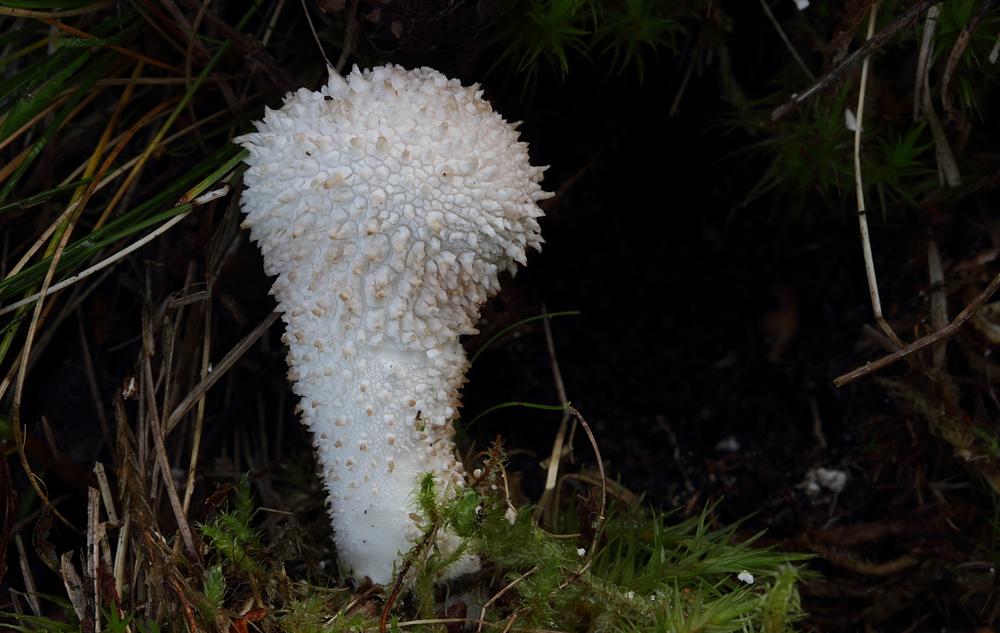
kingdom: Fungi
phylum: Basidiomycota
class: Agaricomycetes
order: Agaricales
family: Lycoperdaceae
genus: Lycoperdon
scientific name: Lycoperdon perlatum
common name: krystal-støvbold
